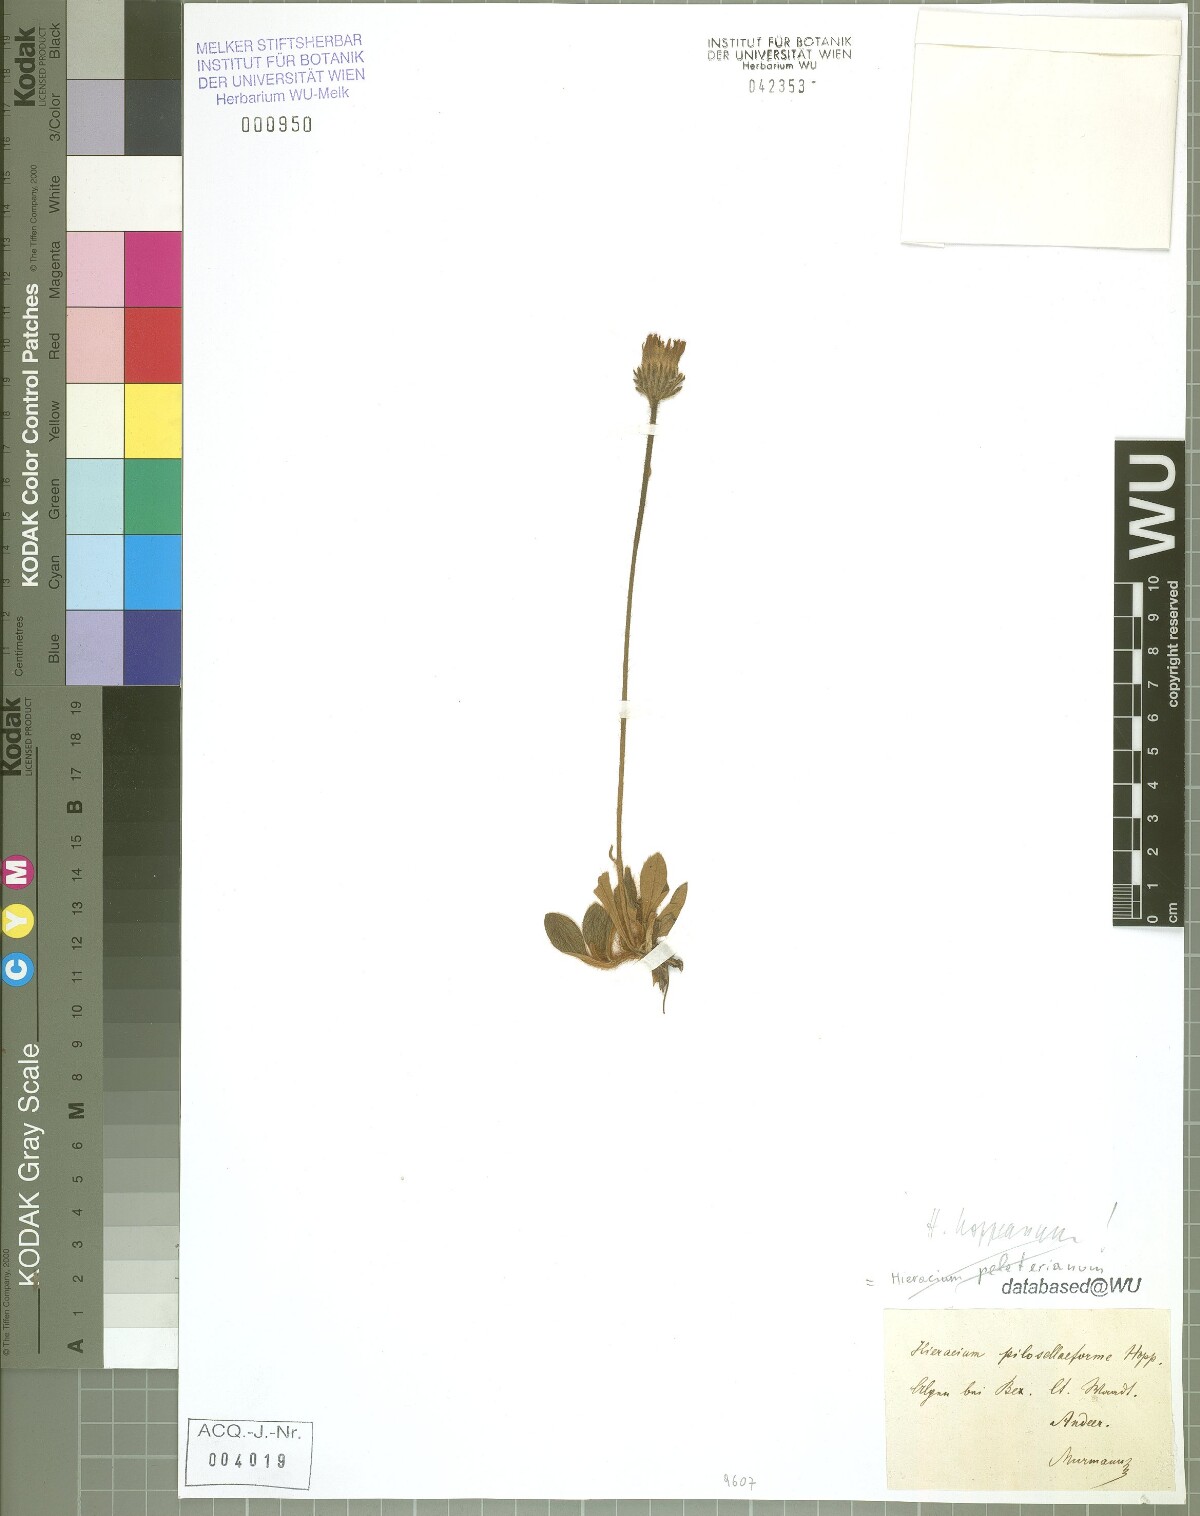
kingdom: Plantae
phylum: Tracheophyta
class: Magnoliopsida
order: Asterales
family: Asteraceae
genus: Pilosella
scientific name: Pilosella hoppeana
